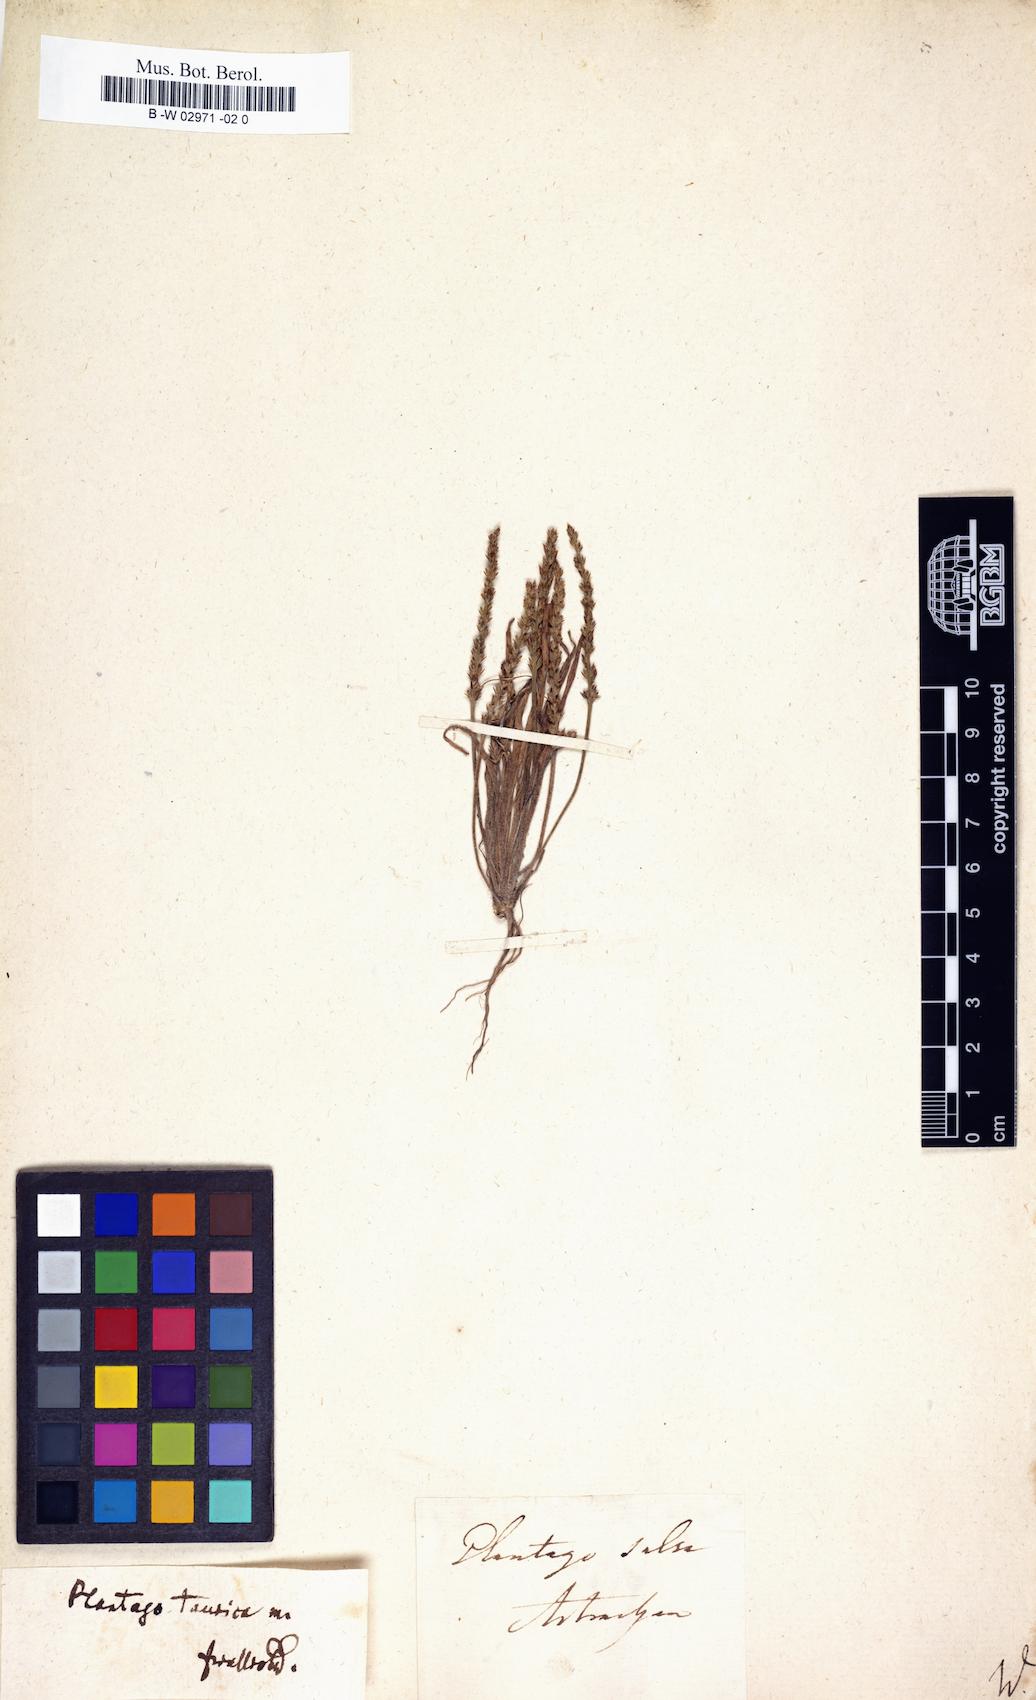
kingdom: Plantae
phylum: Tracheophyta
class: Magnoliopsida
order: Lamiales
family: Plantaginaceae
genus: Plantago
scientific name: Plantago
